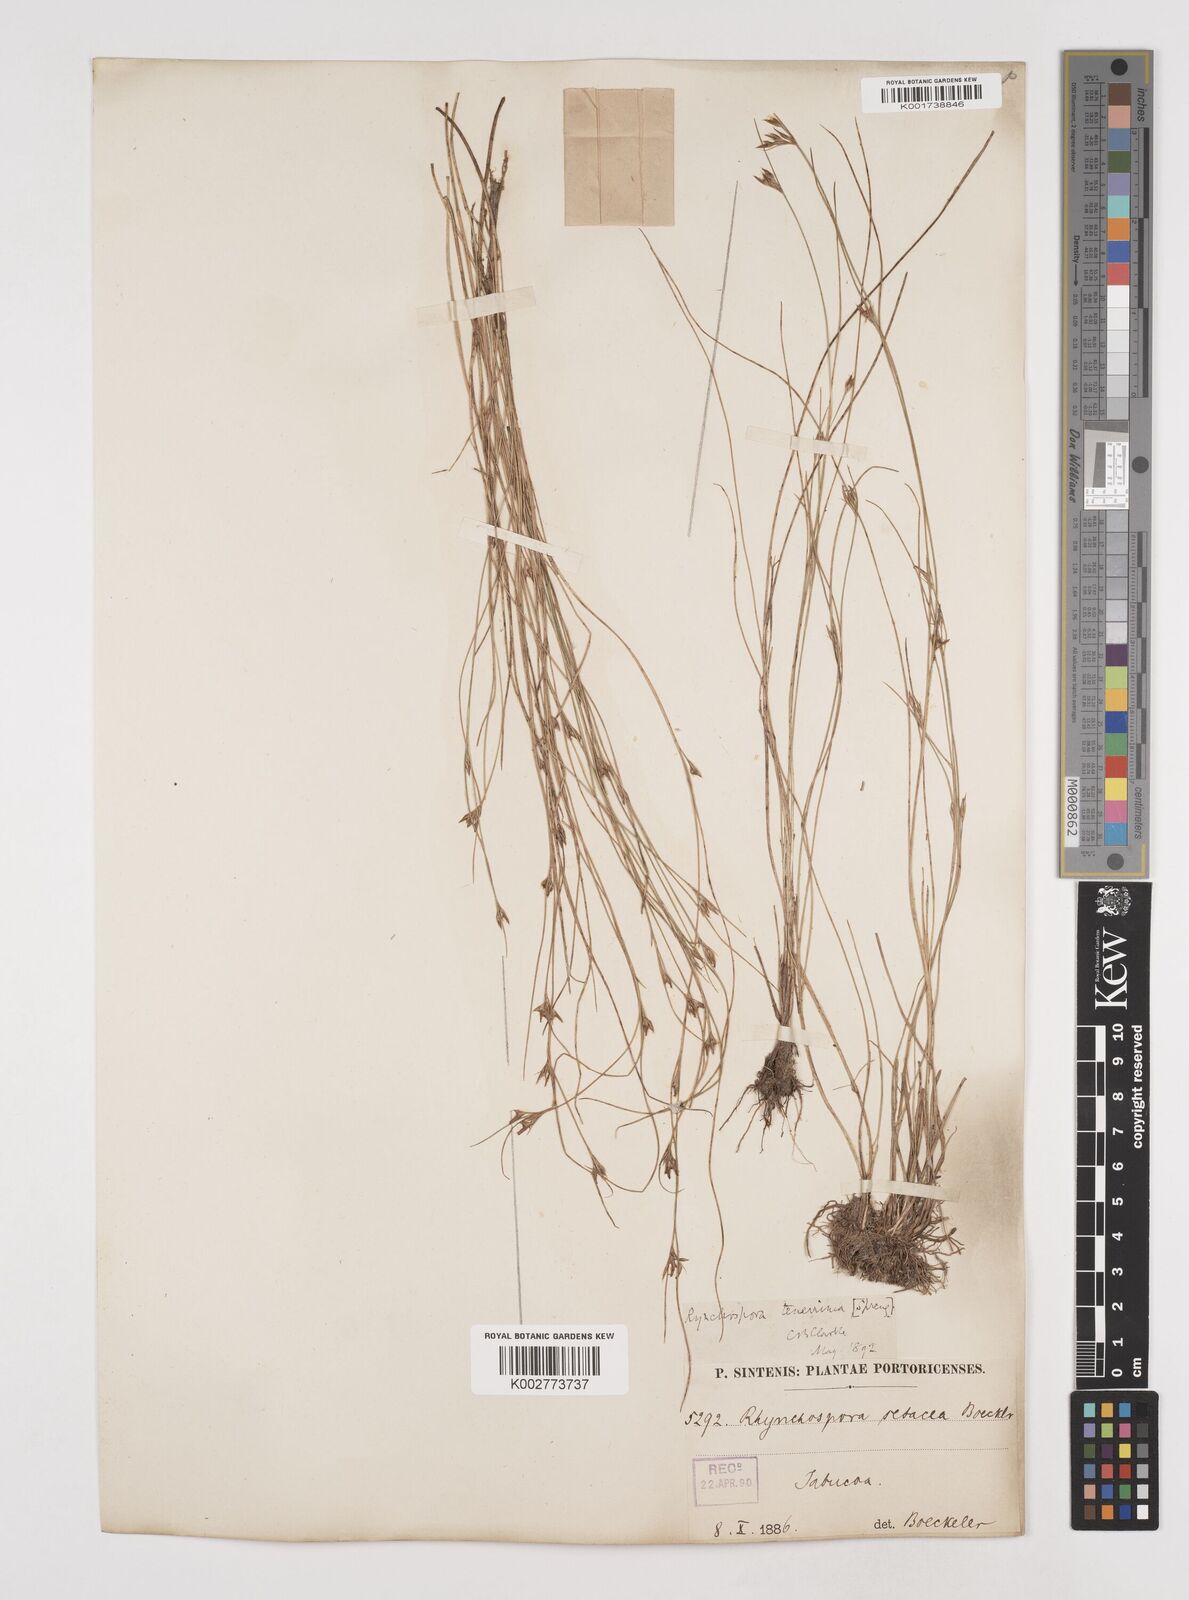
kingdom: Plantae
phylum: Tracheophyta
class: Liliopsida
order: Poales
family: Cyperaceae
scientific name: Cyperaceae
